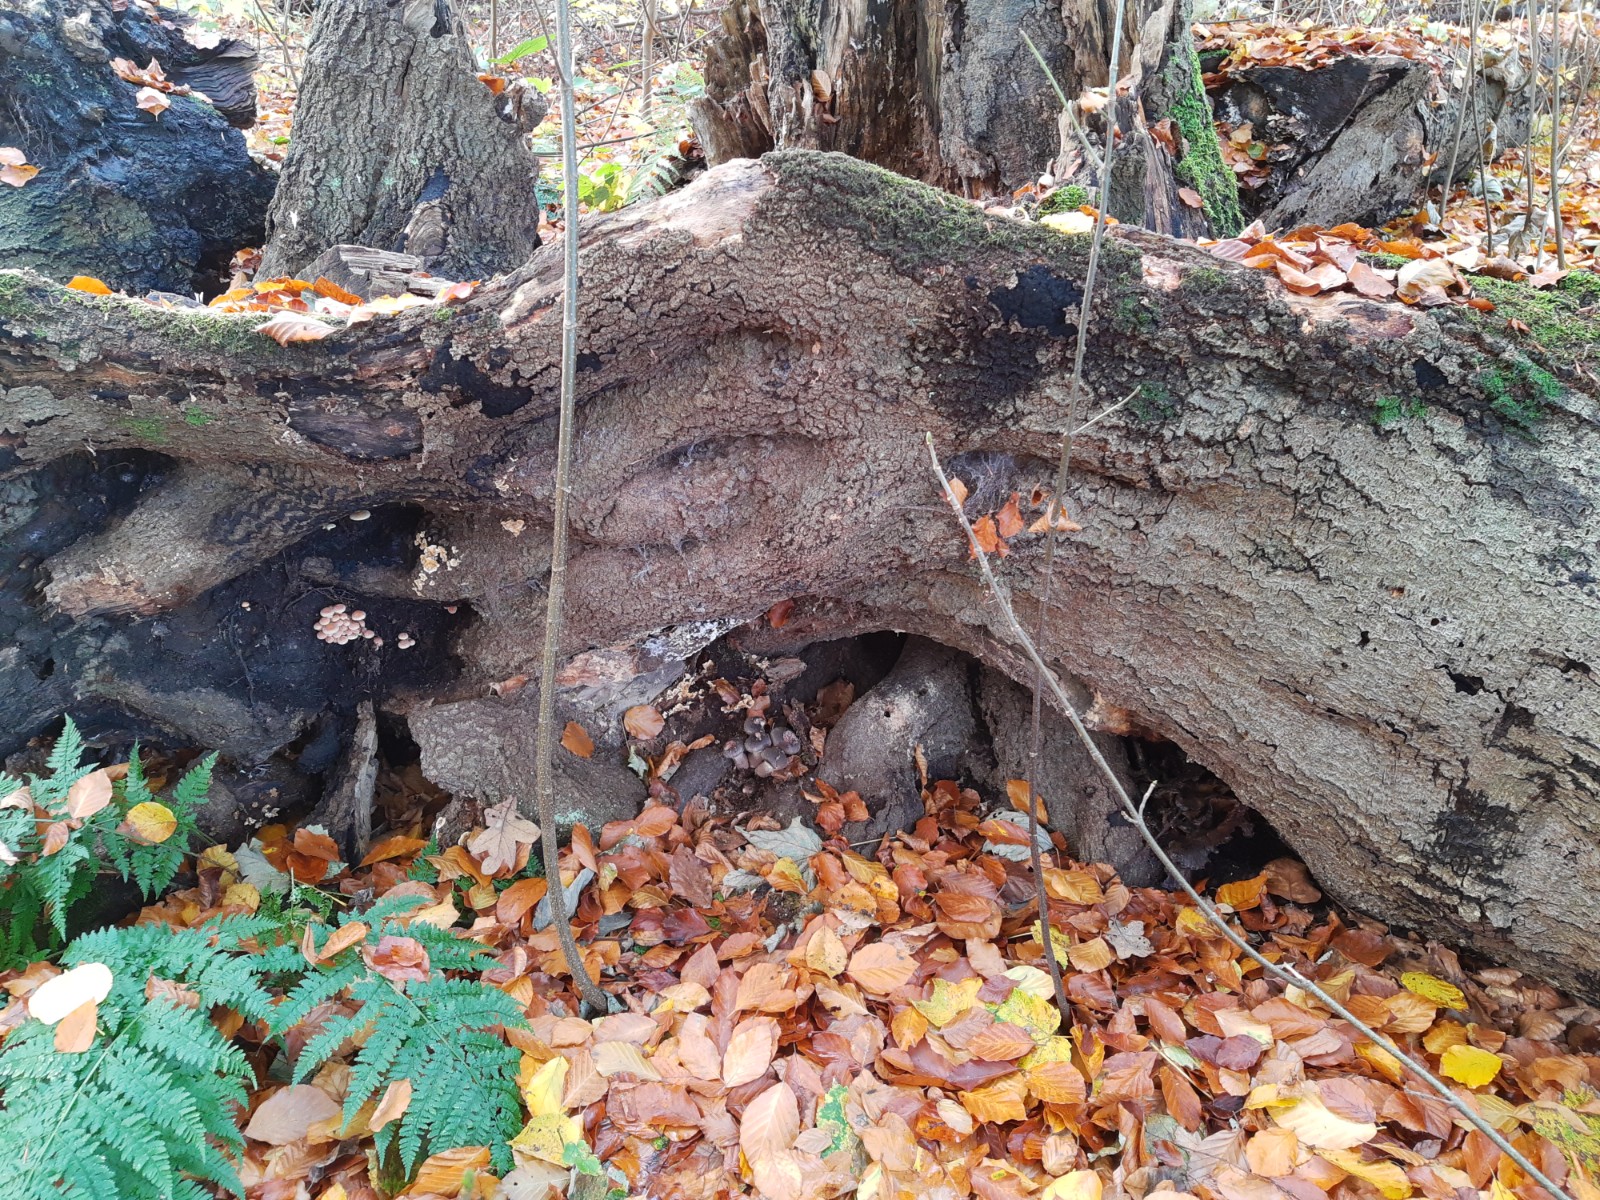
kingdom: Fungi
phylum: Basidiomycota
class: Agaricomycetes
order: Agaricales
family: Physalacriaceae
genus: Armillaria
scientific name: Armillaria lutea
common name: køllestokket honningsvamp
